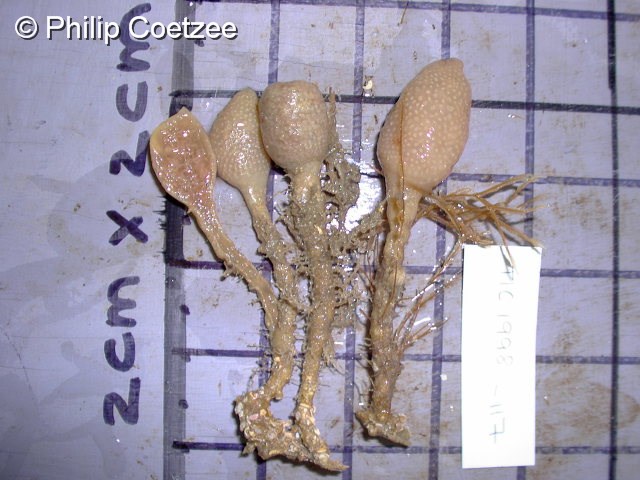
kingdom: Animalia
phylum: Chordata
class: Ascidiacea
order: Aplousobranchia
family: Pseudodistomidae
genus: Pseudodistoma
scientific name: Pseudodistoma africanum
